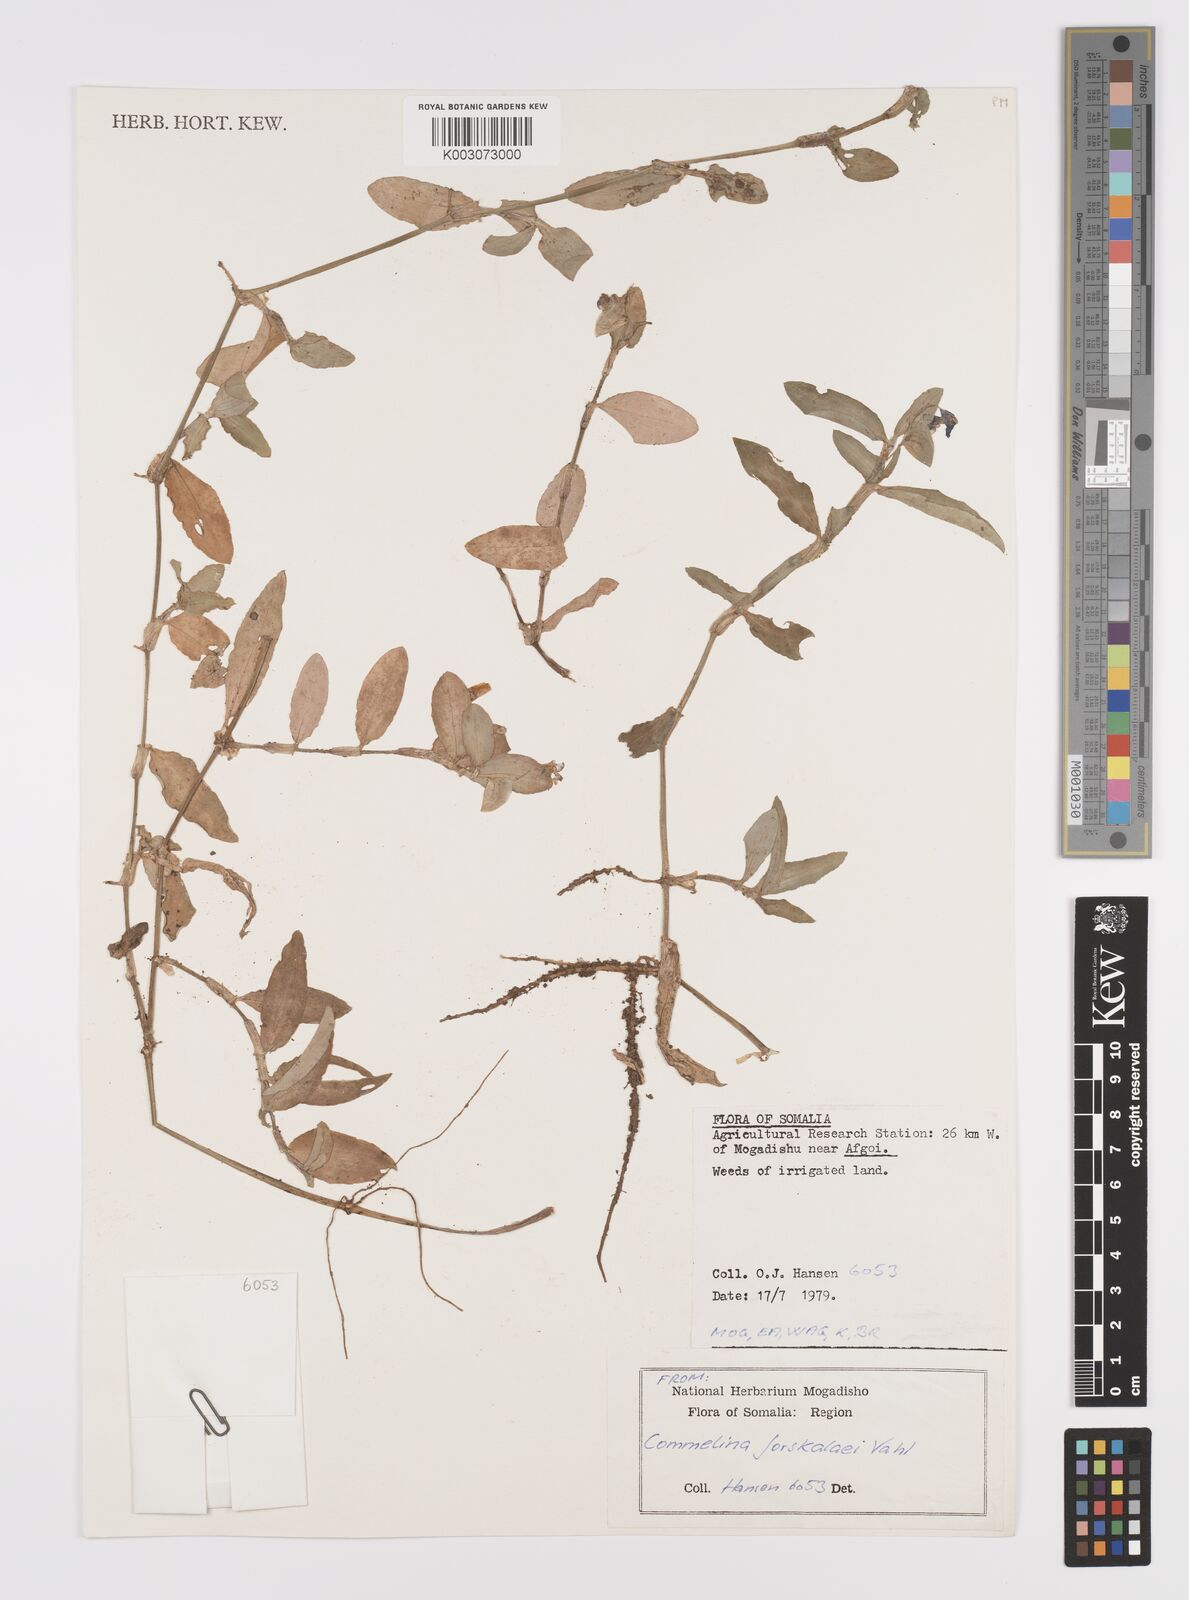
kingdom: Plantae
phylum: Tracheophyta
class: Liliopsida
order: Commelinales
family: Commelinaceae
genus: Commelina
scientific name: Commelina forskaolii
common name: Rat's ear
